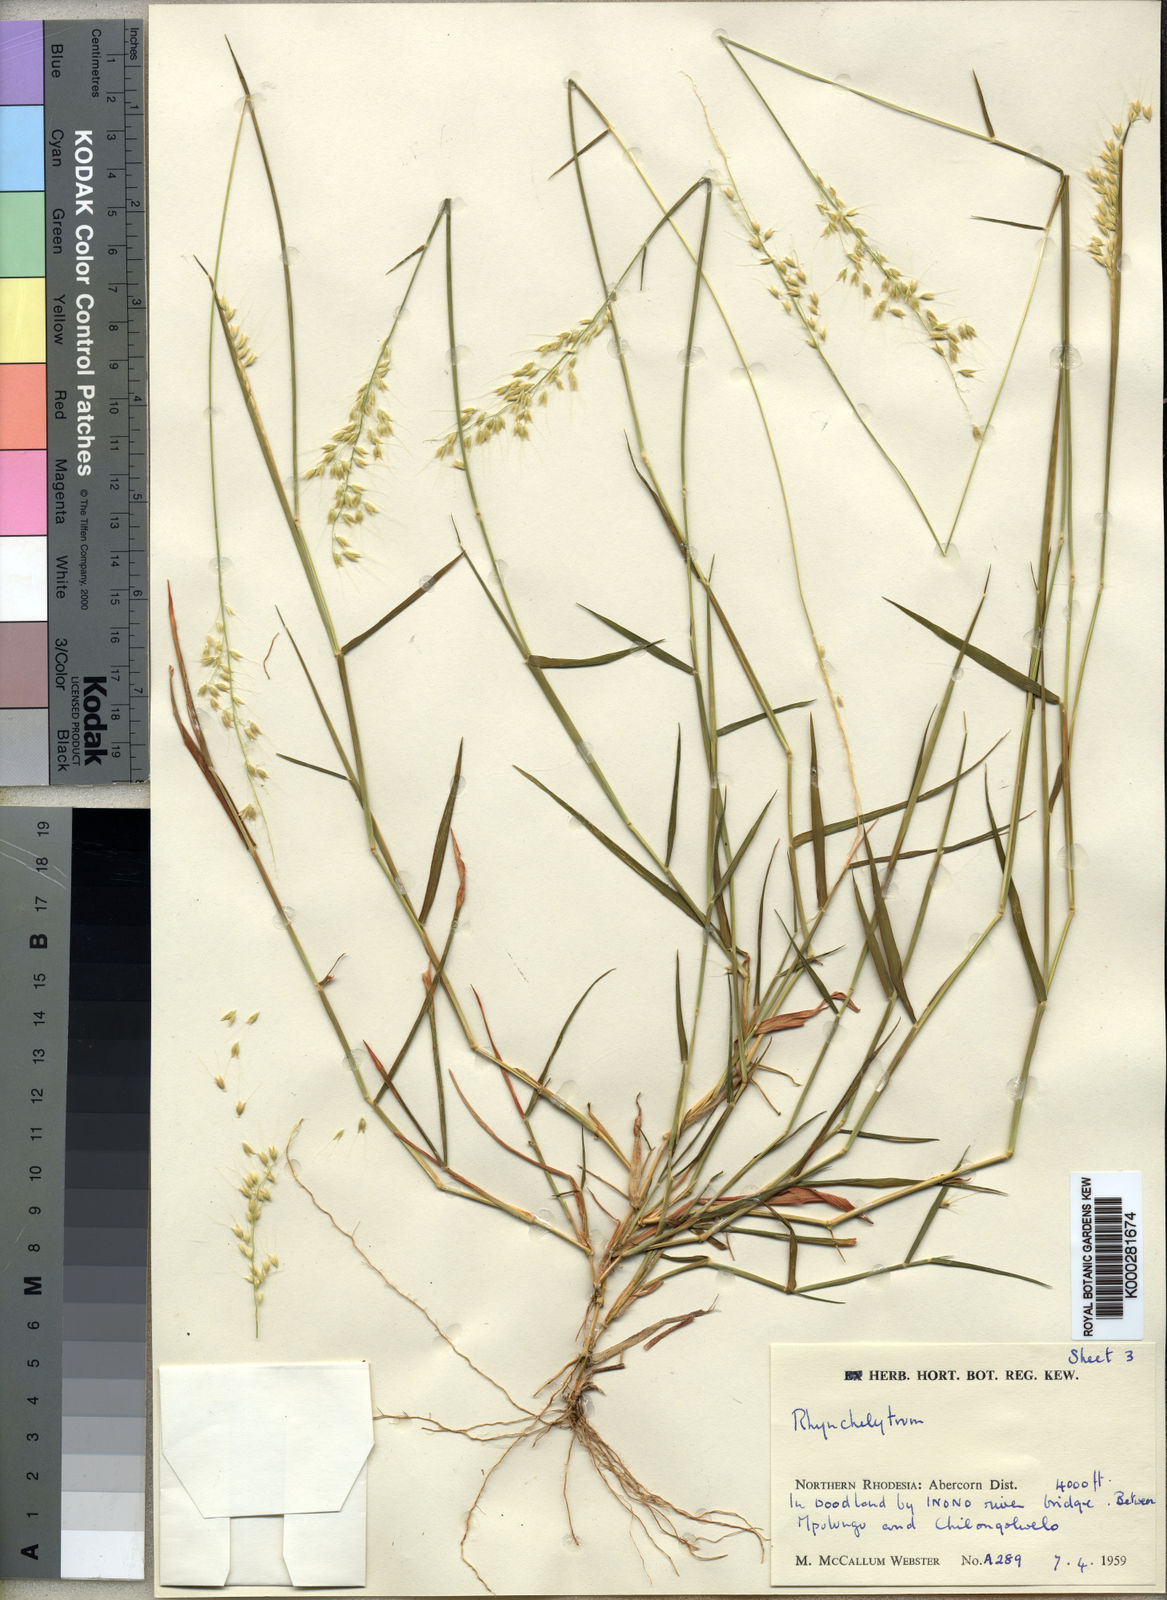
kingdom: Plantae
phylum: Tracheophyta
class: Liliopsida
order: Poales
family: Poaceae
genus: Melinis
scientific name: Melinis kallimorpha
